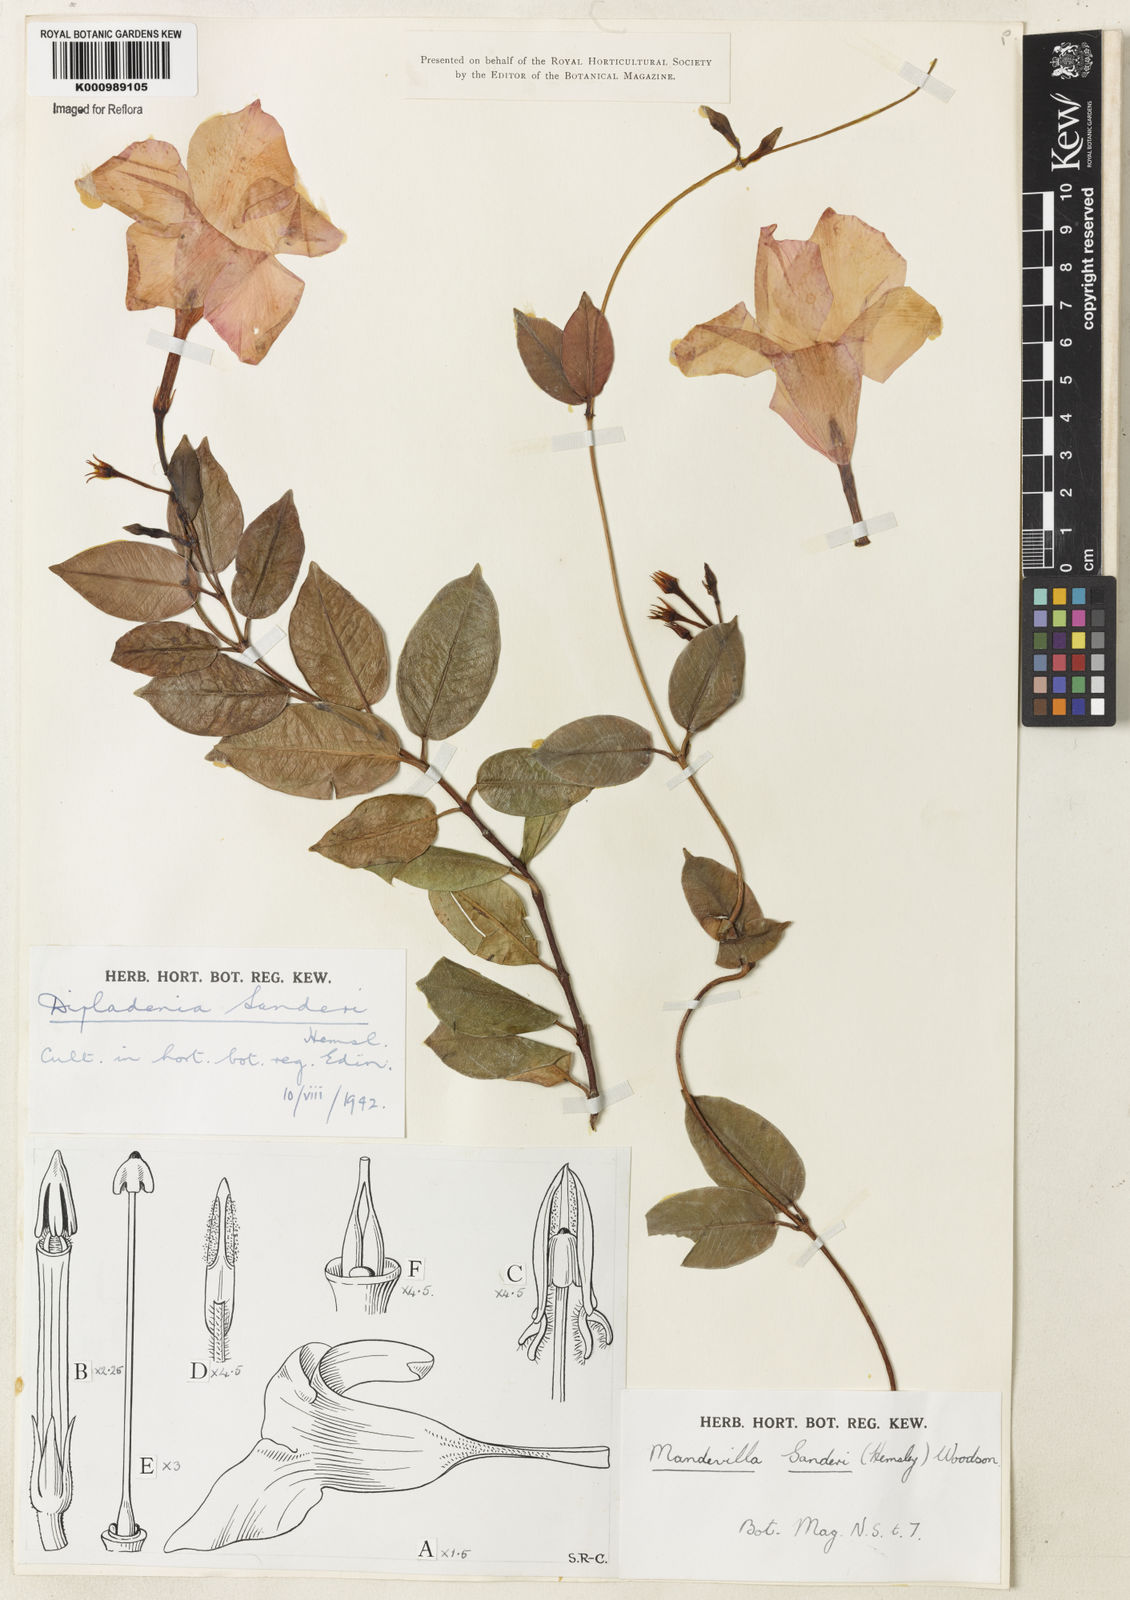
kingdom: Plantae
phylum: Tracheophyta
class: Magnoliopsida
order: Gentianales
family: Apocynaceae
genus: Mandevilla
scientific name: Mandevilla sanderi
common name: Brazilian-jasmine
